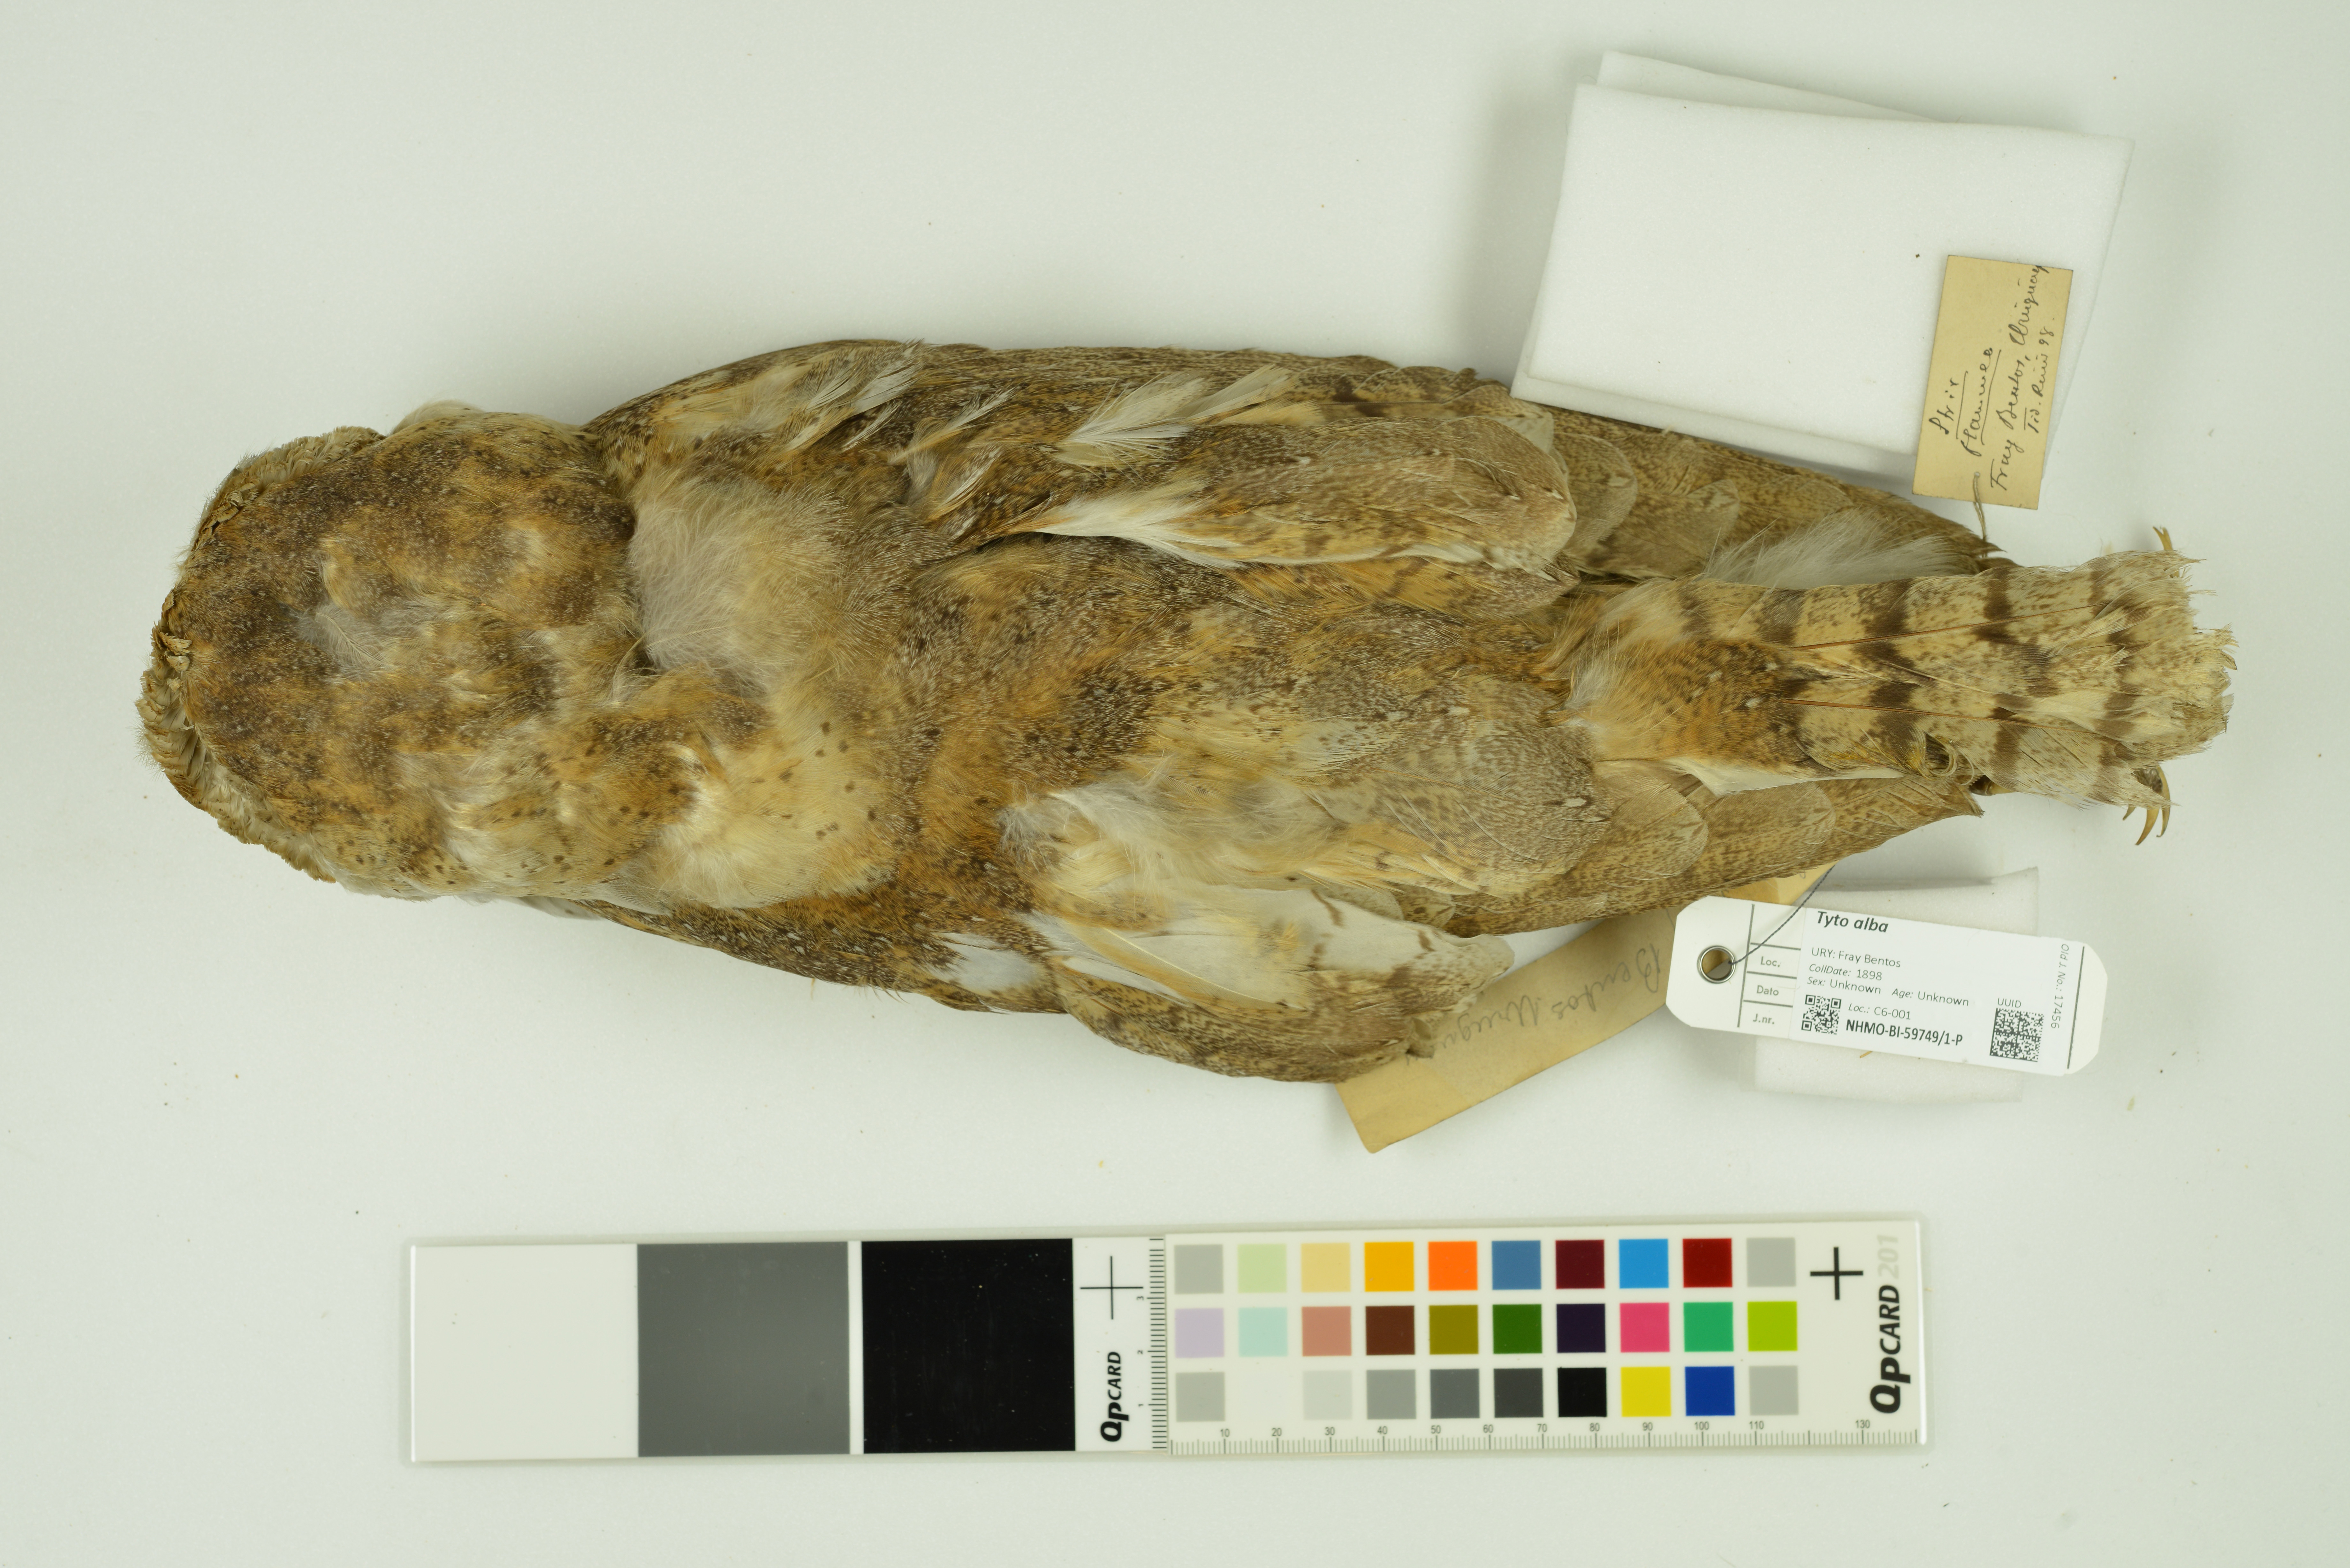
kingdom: Animalia
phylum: Chordata
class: Aves
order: Strigiformes
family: Tytonidae
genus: Tyto
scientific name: Tyto alba
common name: Barn owl
